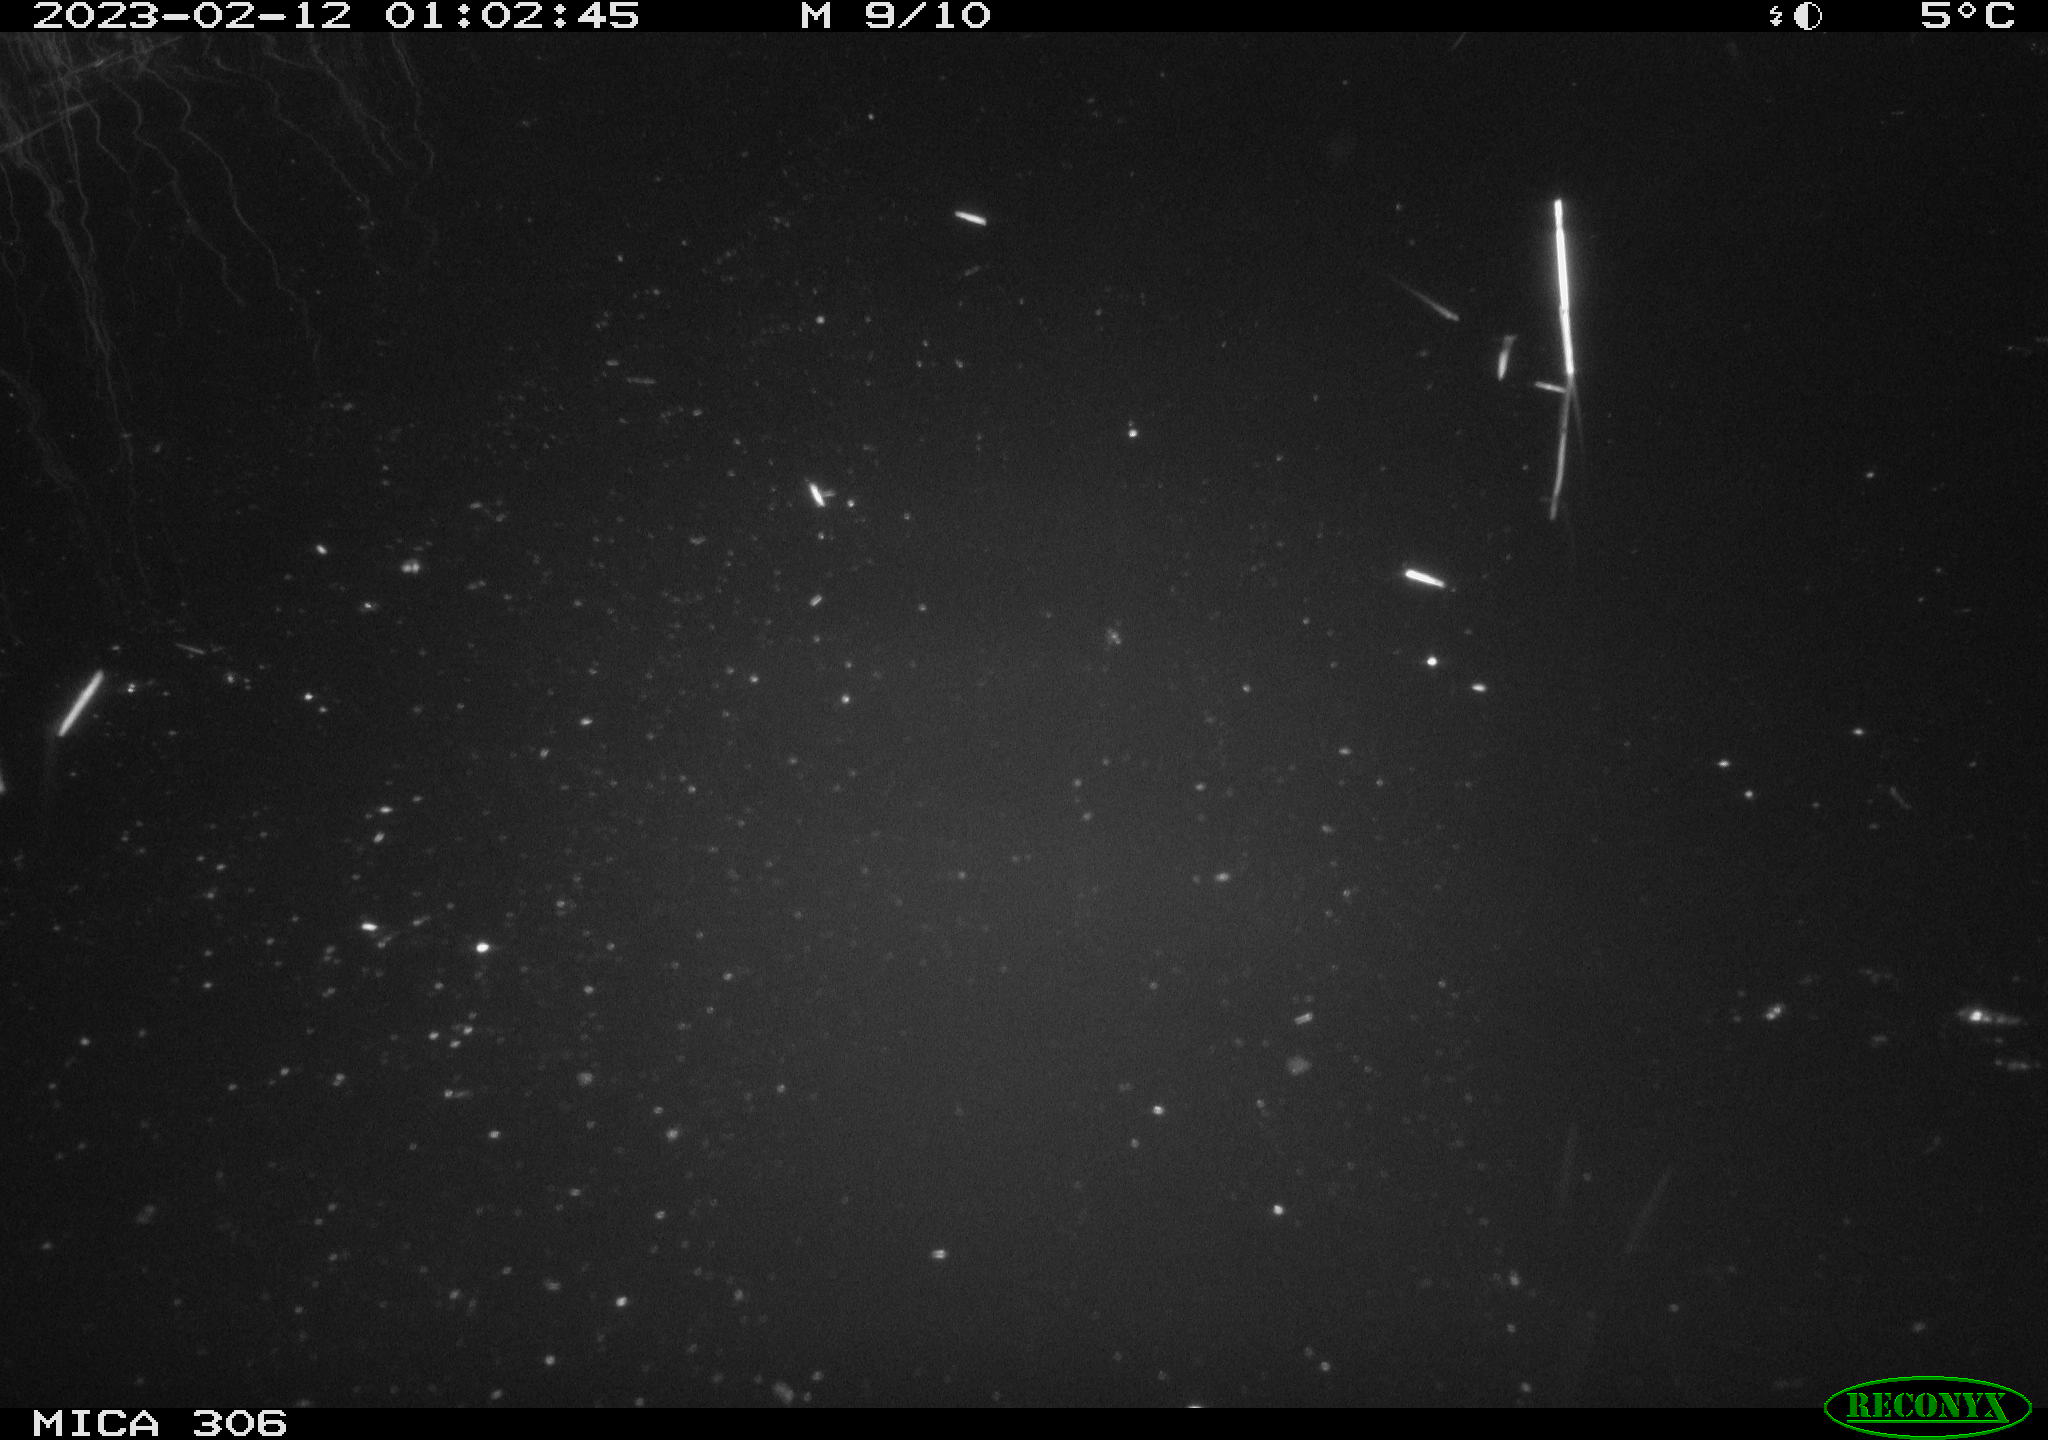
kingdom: Animalia
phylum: Chordata
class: Mammalia
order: Rodentia
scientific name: Rodentia
